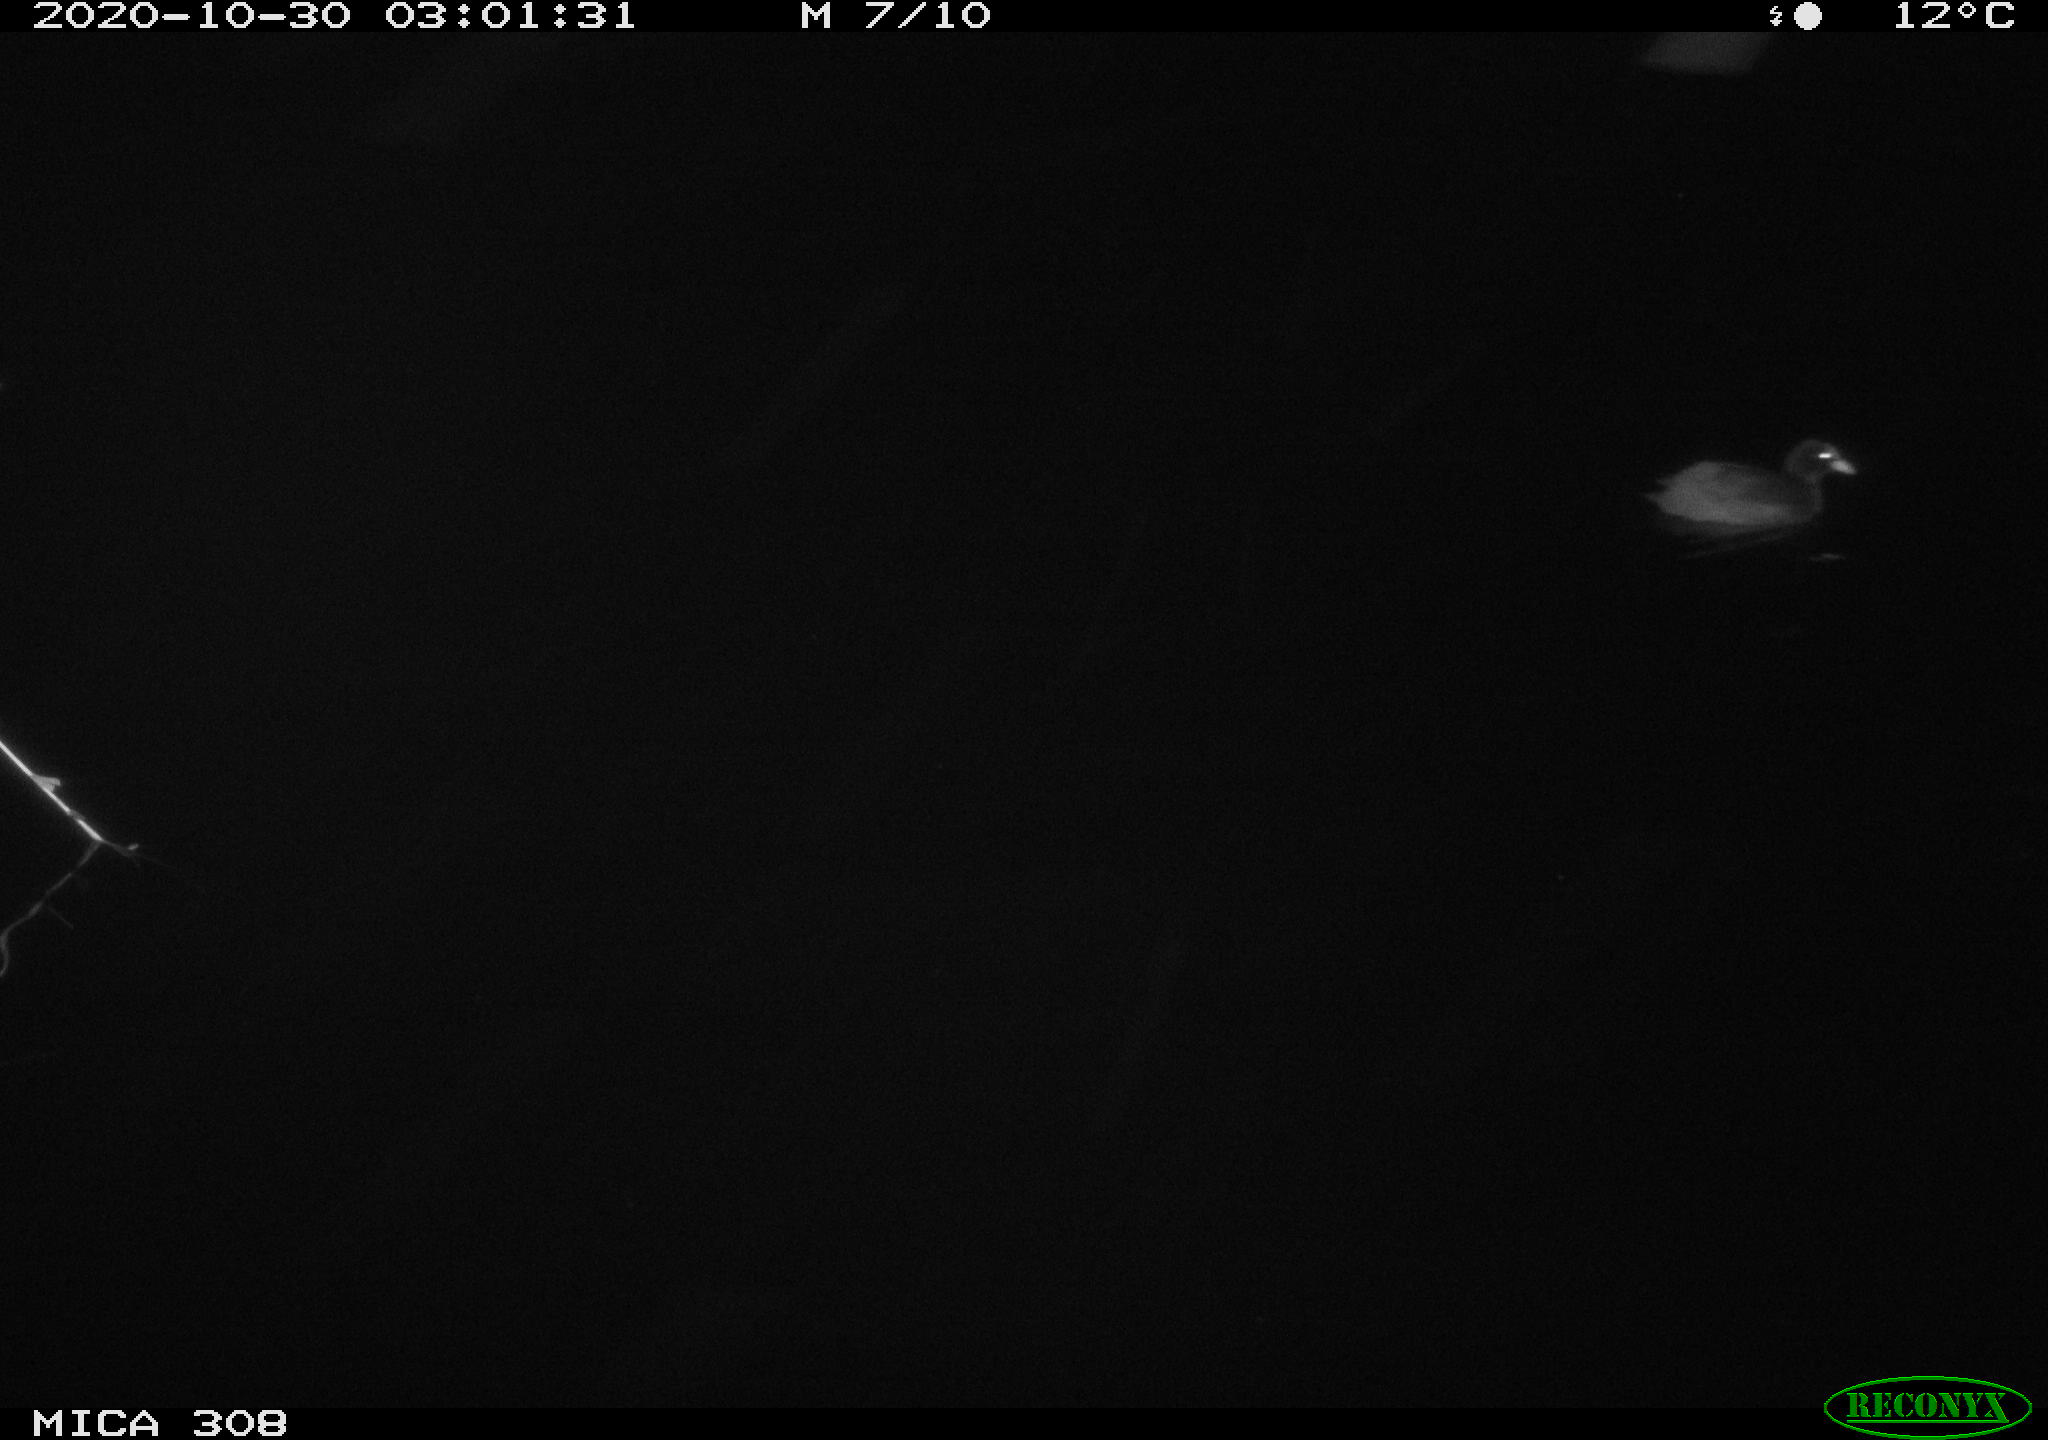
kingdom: Animalia
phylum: Chordata
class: Aves
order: Gruiformes
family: Rallidae
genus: Fulica
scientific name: Fulica atra
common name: Eurasian coot
